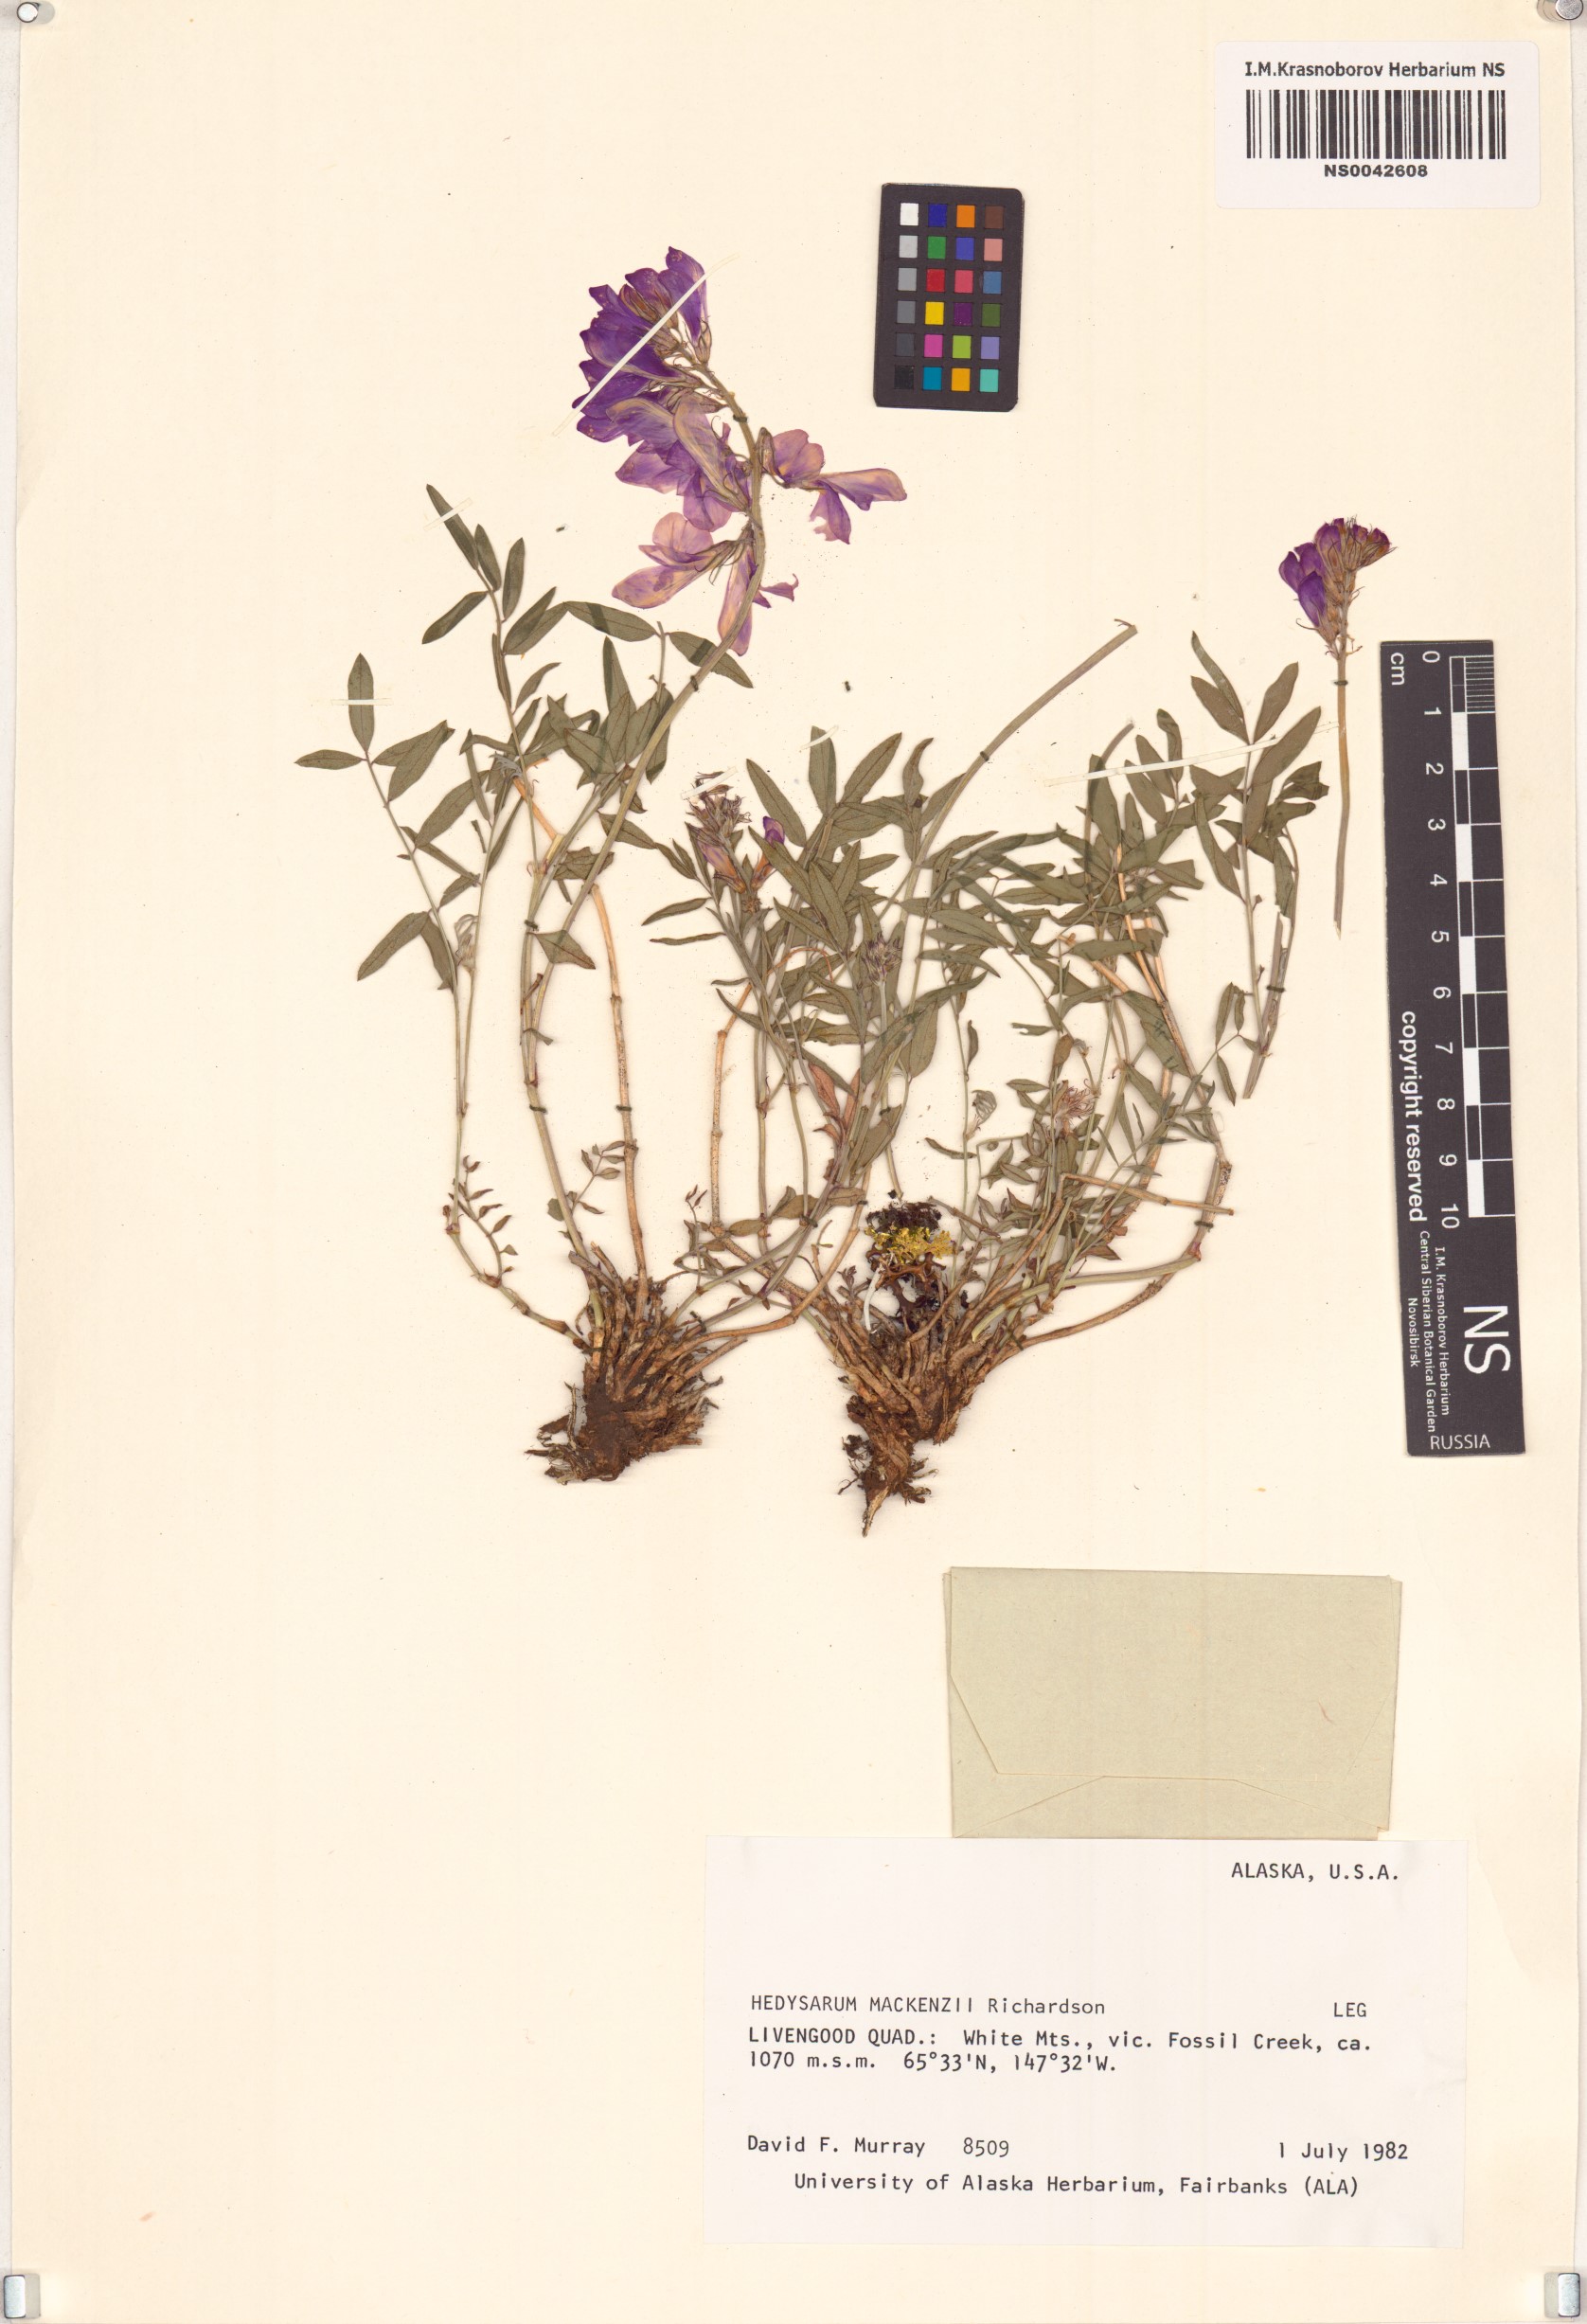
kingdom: Plantae
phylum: Tracheophyta
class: Magnoliopsida
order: Fabales
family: Fabaceae
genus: Hedysarum
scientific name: Hedysarum boreale
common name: Northern sweet-vetch
